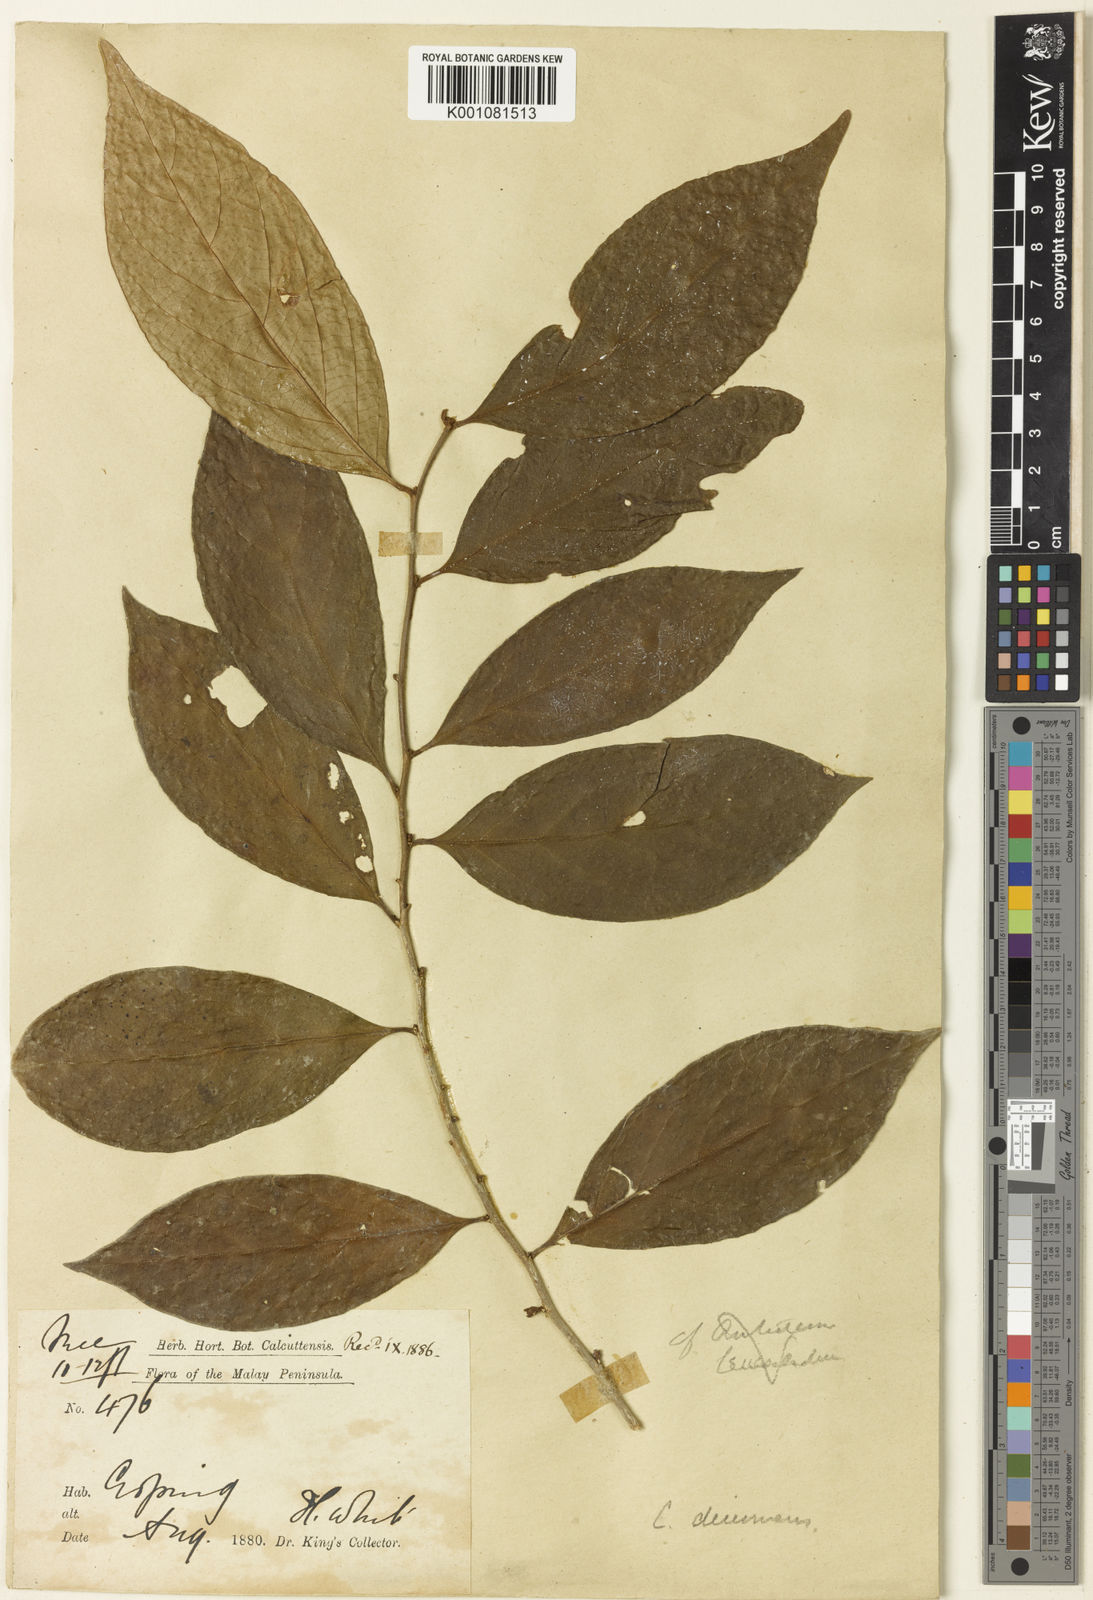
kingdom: Plantae
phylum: Tracheophyta
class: Magnoliopsida
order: Malpighiales
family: Phyllanthaceae
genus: Cleistanthus
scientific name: Cleistanthus decurrens
